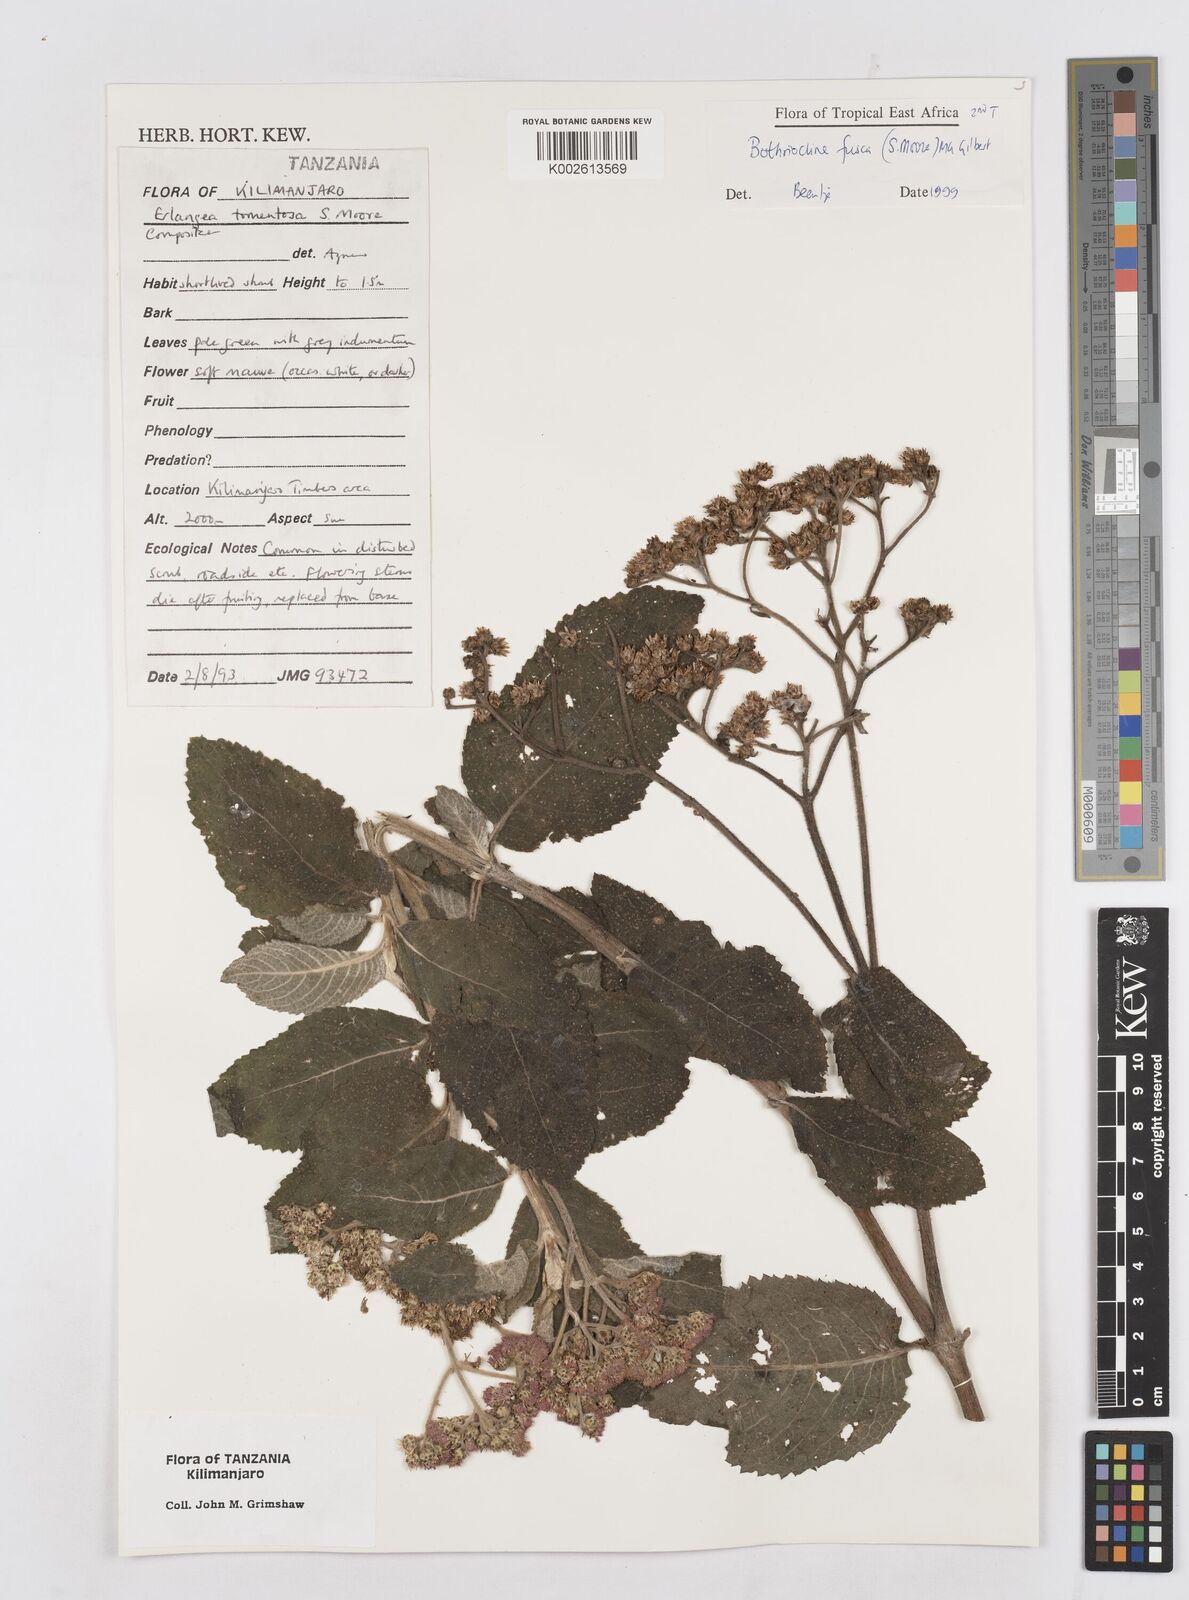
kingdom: Plantae
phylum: Tracheophyta
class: Magnoliopsida
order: Asterales
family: Asteraceae
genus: Bothriocline
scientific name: Bothriocline fusca
